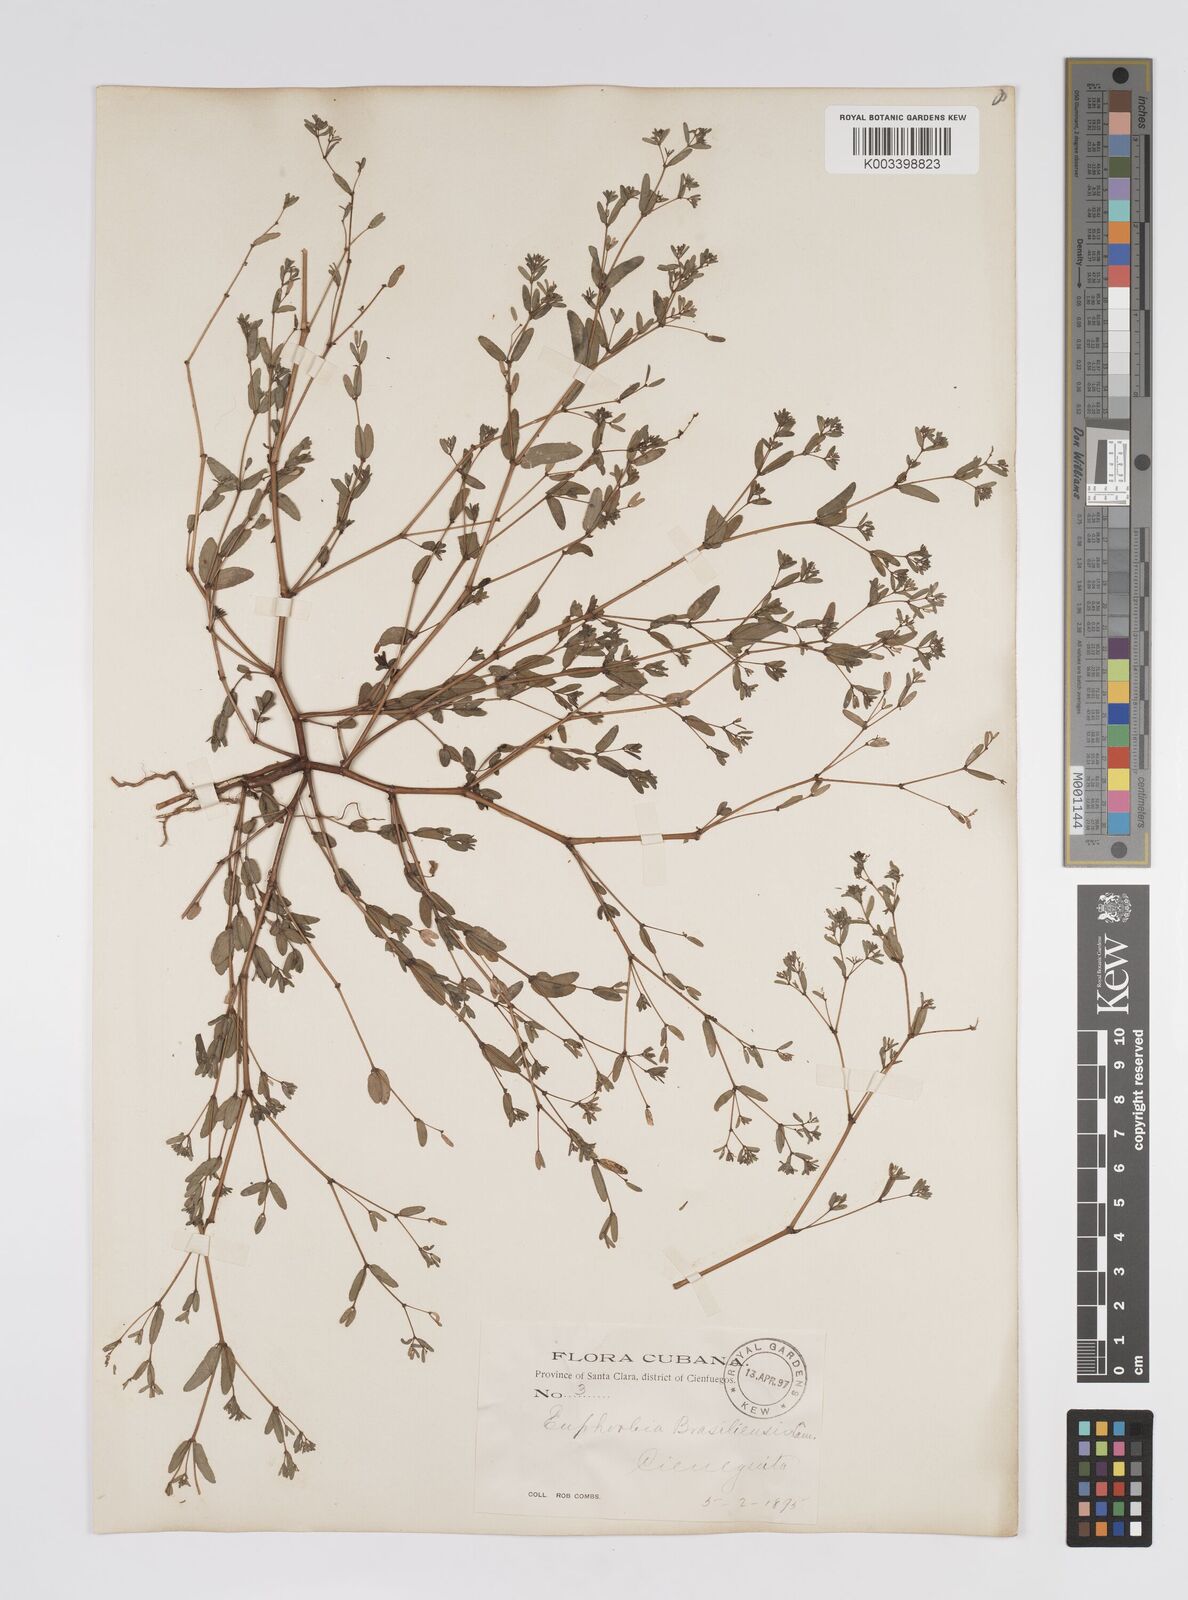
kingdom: Plantae
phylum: Tracheophyta
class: Magnoliopsida
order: Malpighiales
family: Euphorbiaceae
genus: Euphorbia
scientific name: Euphorbia hyssopifolia
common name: Hyssopleaf sandmat
